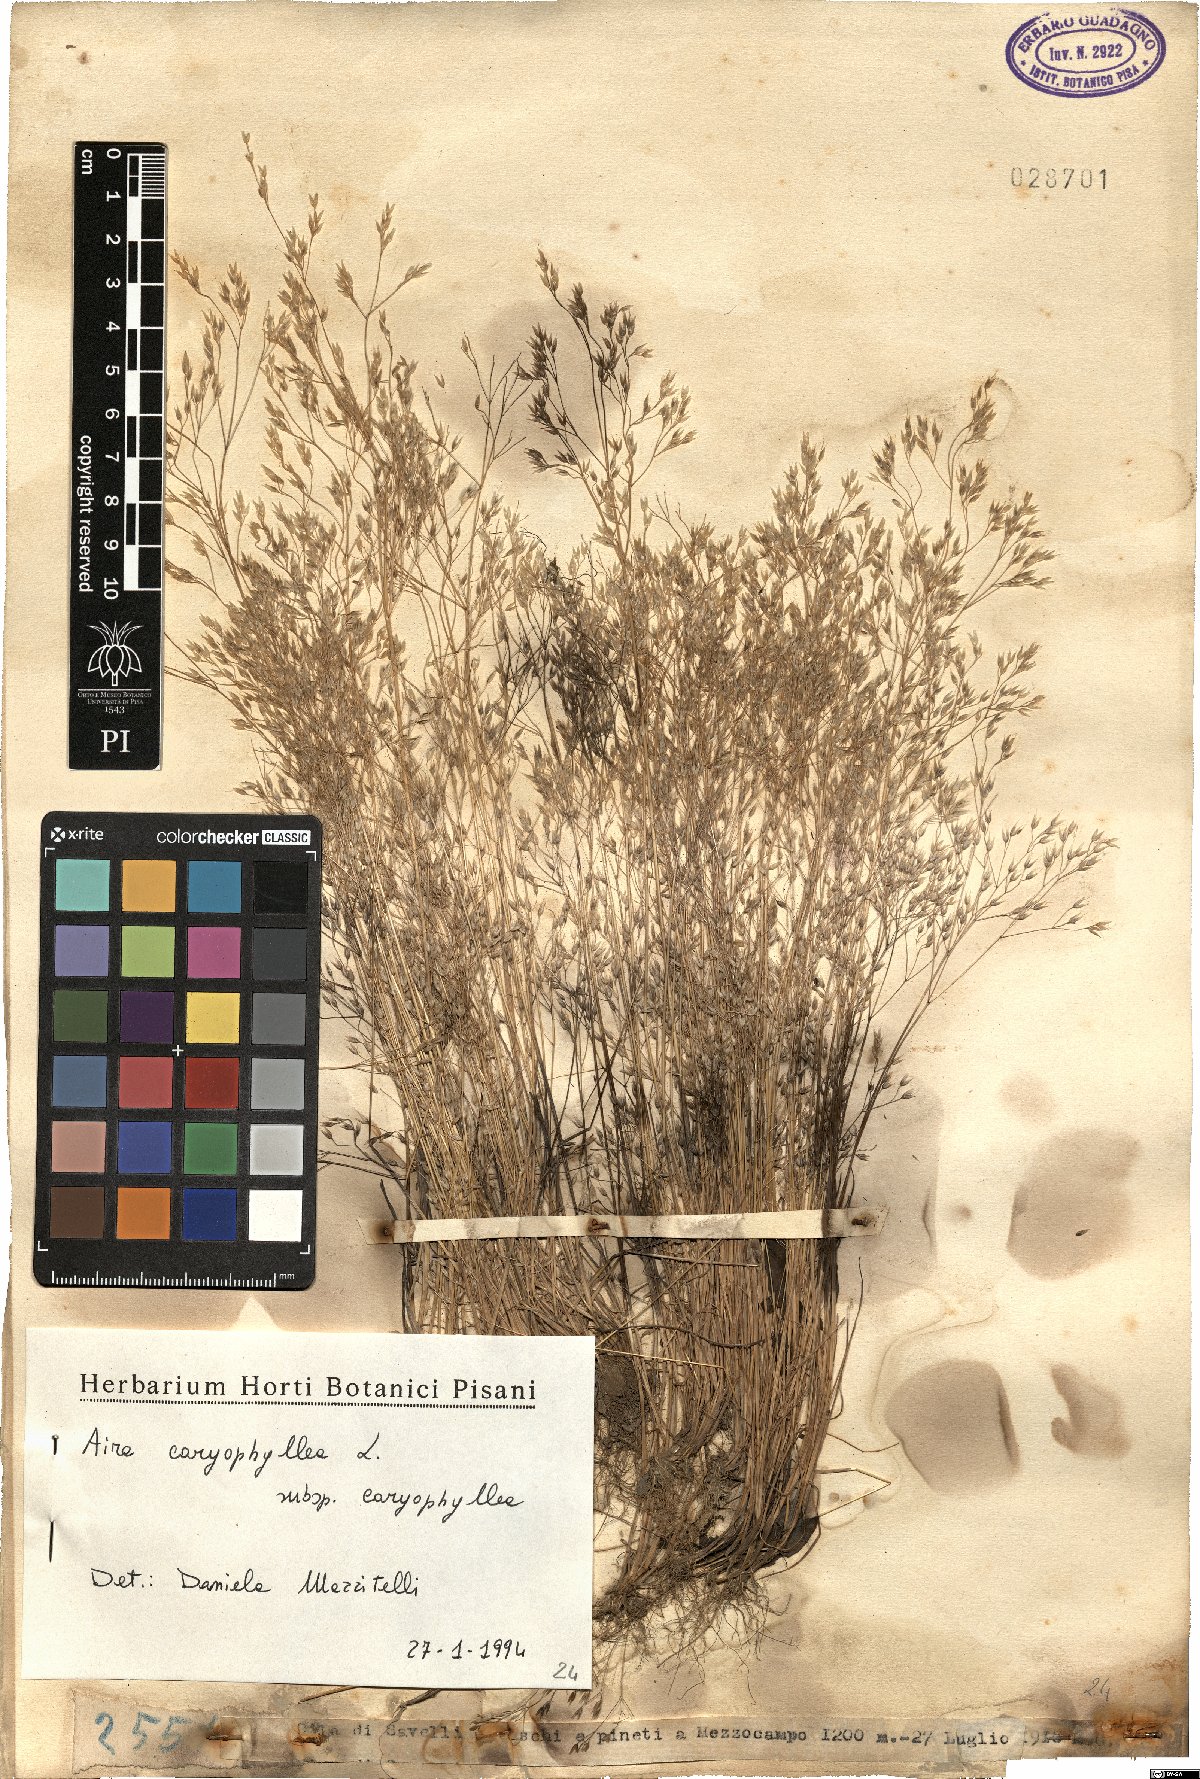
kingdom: Plantae
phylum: Tracheophyta
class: Liliopsida
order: Poales
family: Poaceae
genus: Aira
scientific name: Aira caryophyllea
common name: Silver hairgrass
